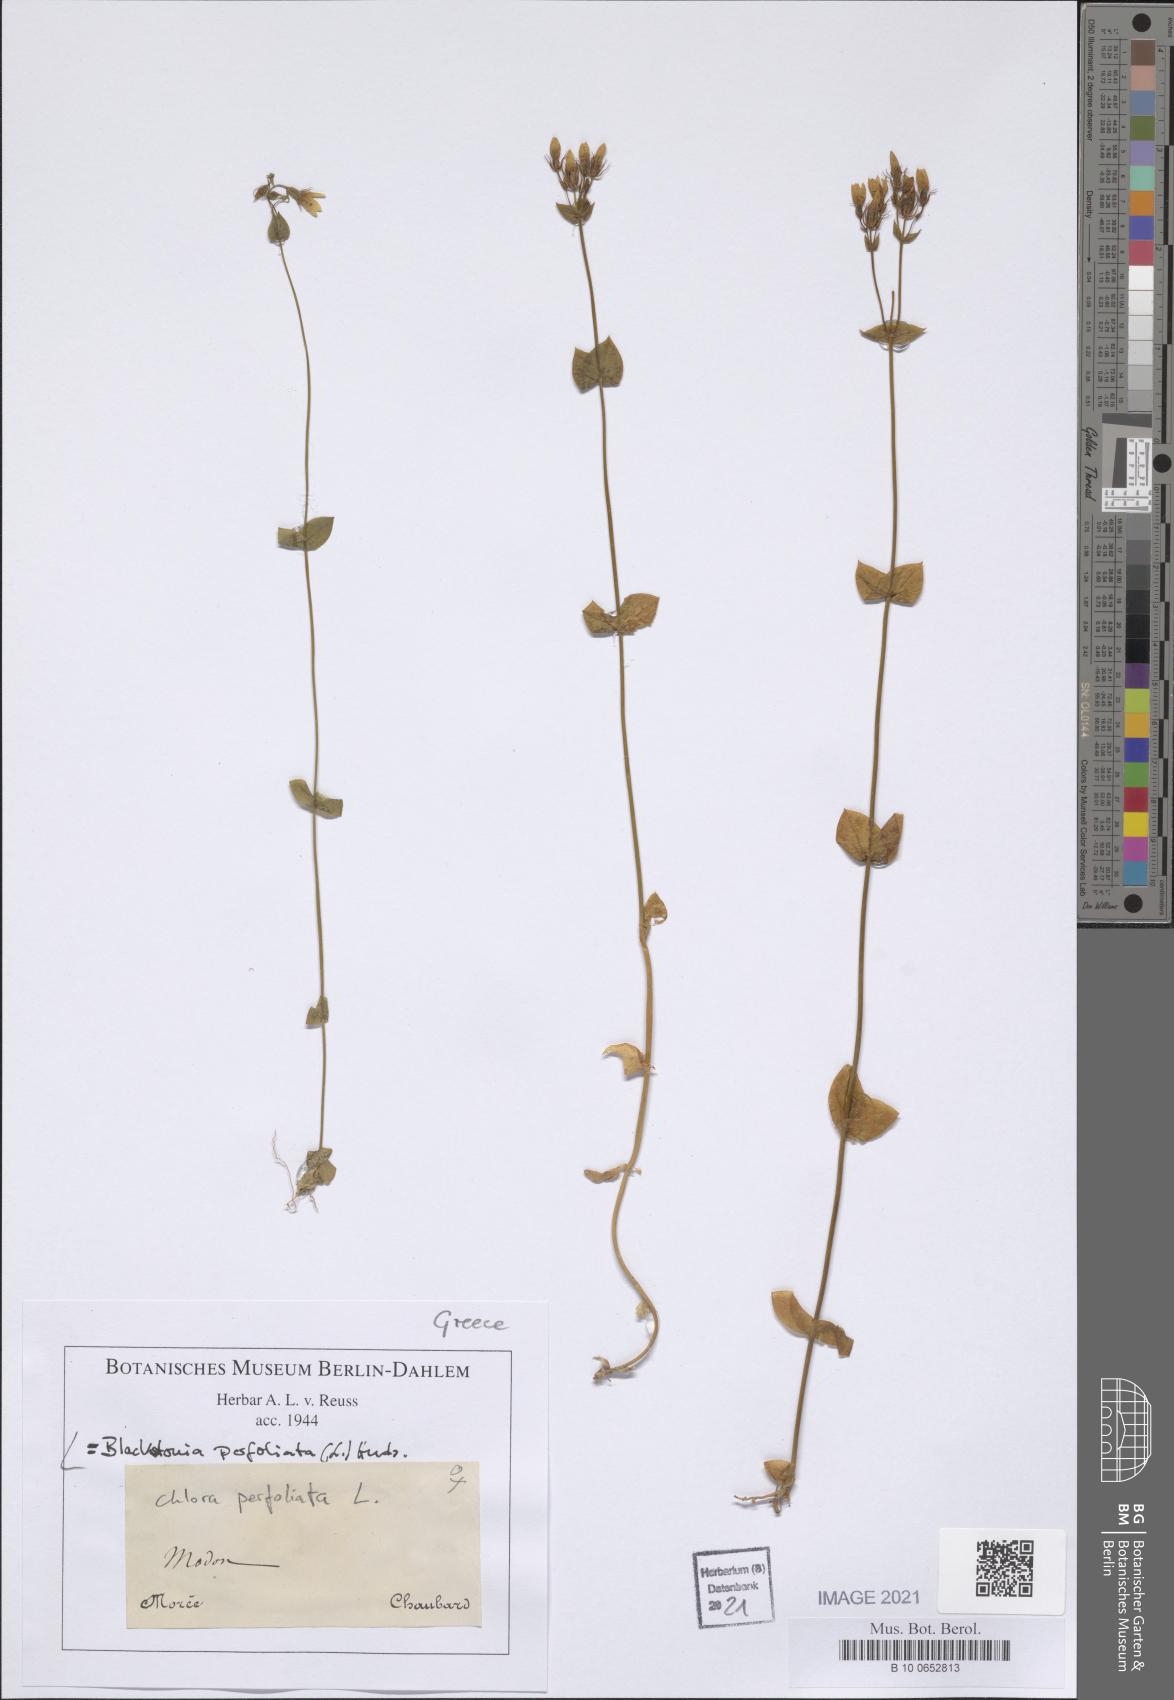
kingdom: Plantae
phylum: Tracheophyta
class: Magnoliopsida
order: Gentianales
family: Gentianaceae
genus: Blackstonia
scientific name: Blackstonia perfoliata
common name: Yellow-wort
